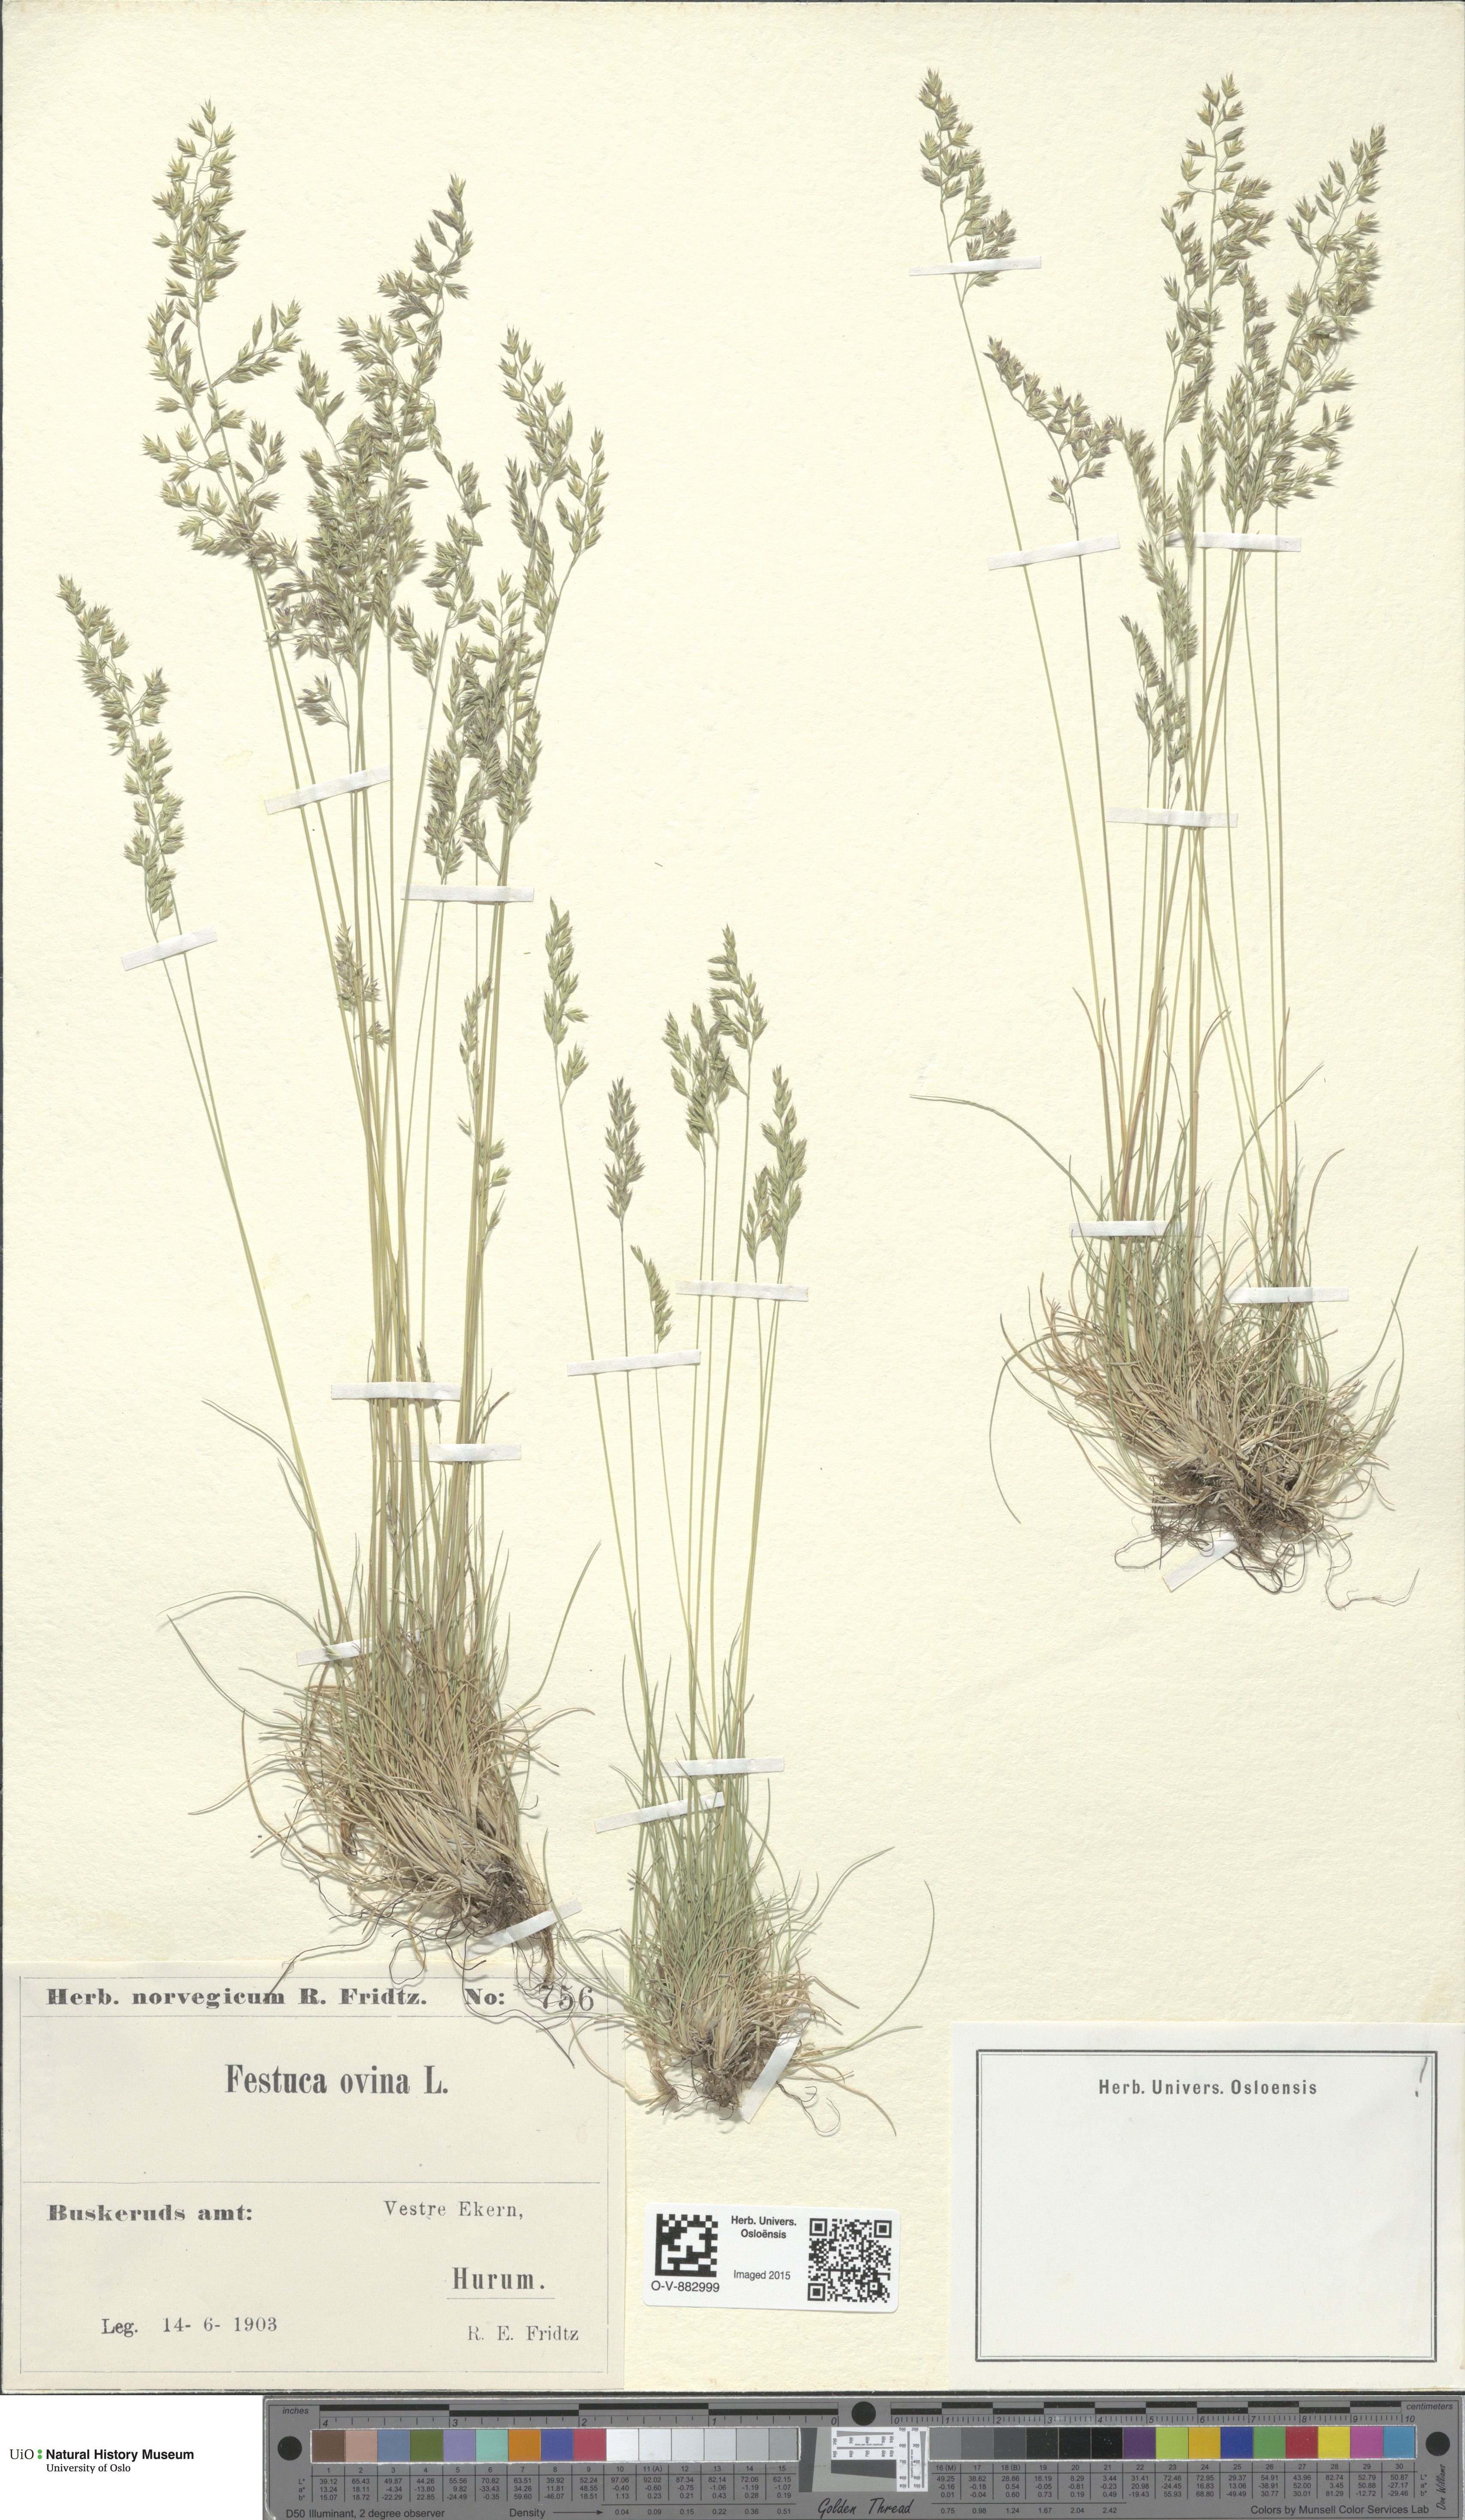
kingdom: Plantae
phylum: Tracheophyta
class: Liliopsida
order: Poales
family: Poaceae
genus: Festuca
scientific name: Festuca ovina
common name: Sheep fescue
